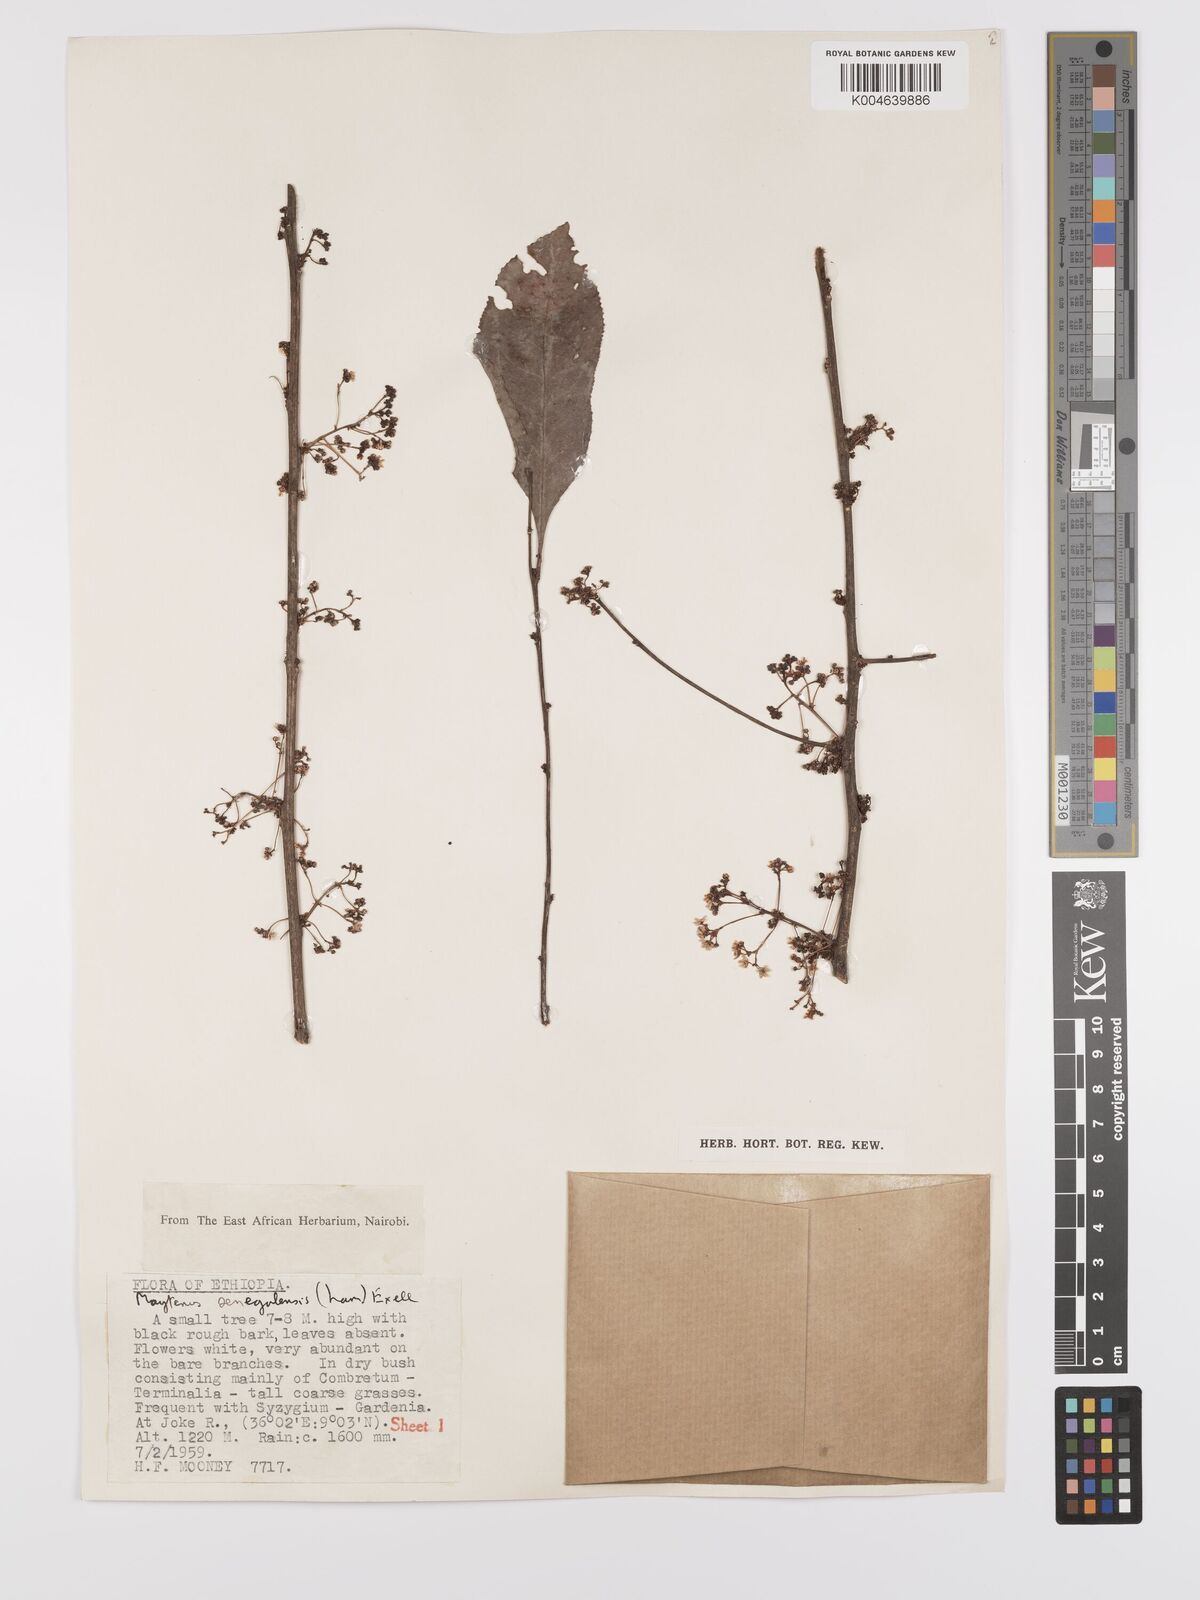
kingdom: Plantae
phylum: Tracheophyta
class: Magnoliopsida
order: Celastrales
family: Celastraceae
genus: Gymnosporia
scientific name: Gymnosporia senegalensis
